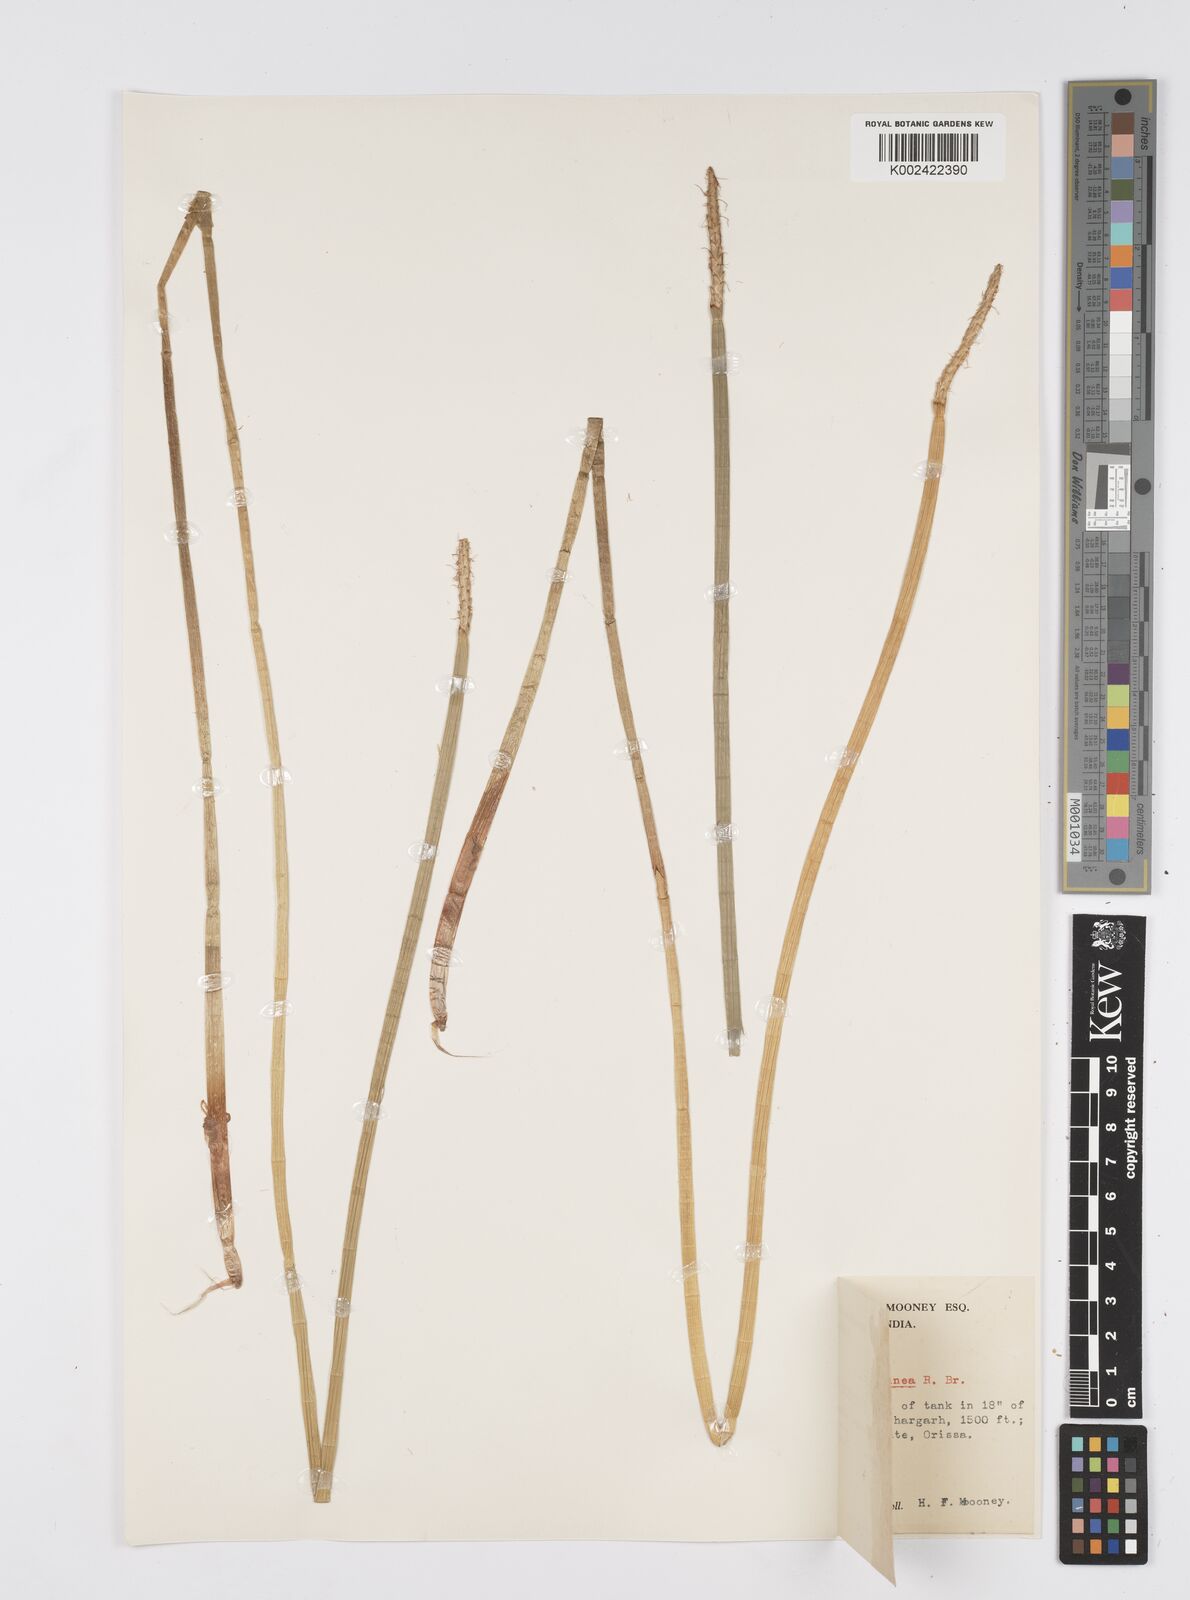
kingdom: Plantae
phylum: Tracheophyta
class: Liliopsida
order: Poales
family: Cyperaceae
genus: Eleocharis
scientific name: Eleocharis dulcis
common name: Chinese water chestnut
